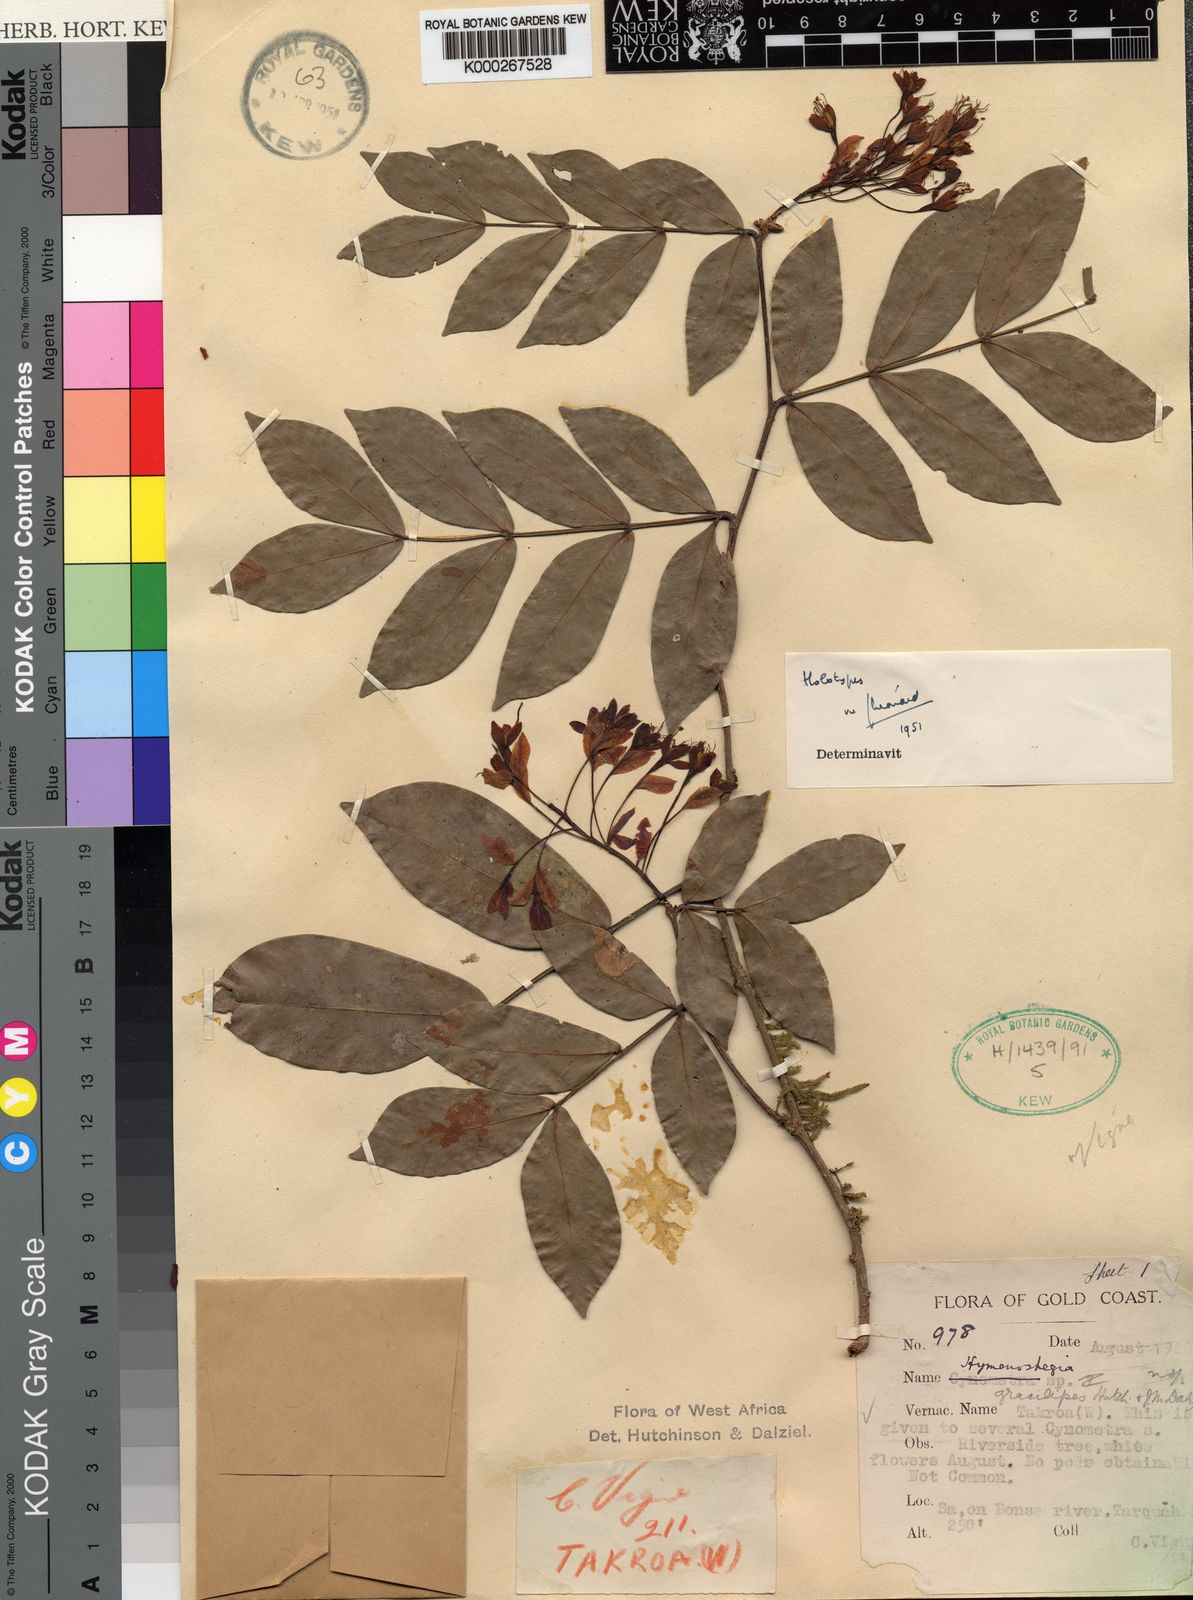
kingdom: Plantae
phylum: Tracheophyta
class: Magnoliopsida
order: Fabales
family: Fabaceae
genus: Hymenostegia
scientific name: Hymenostegia gracilipes
